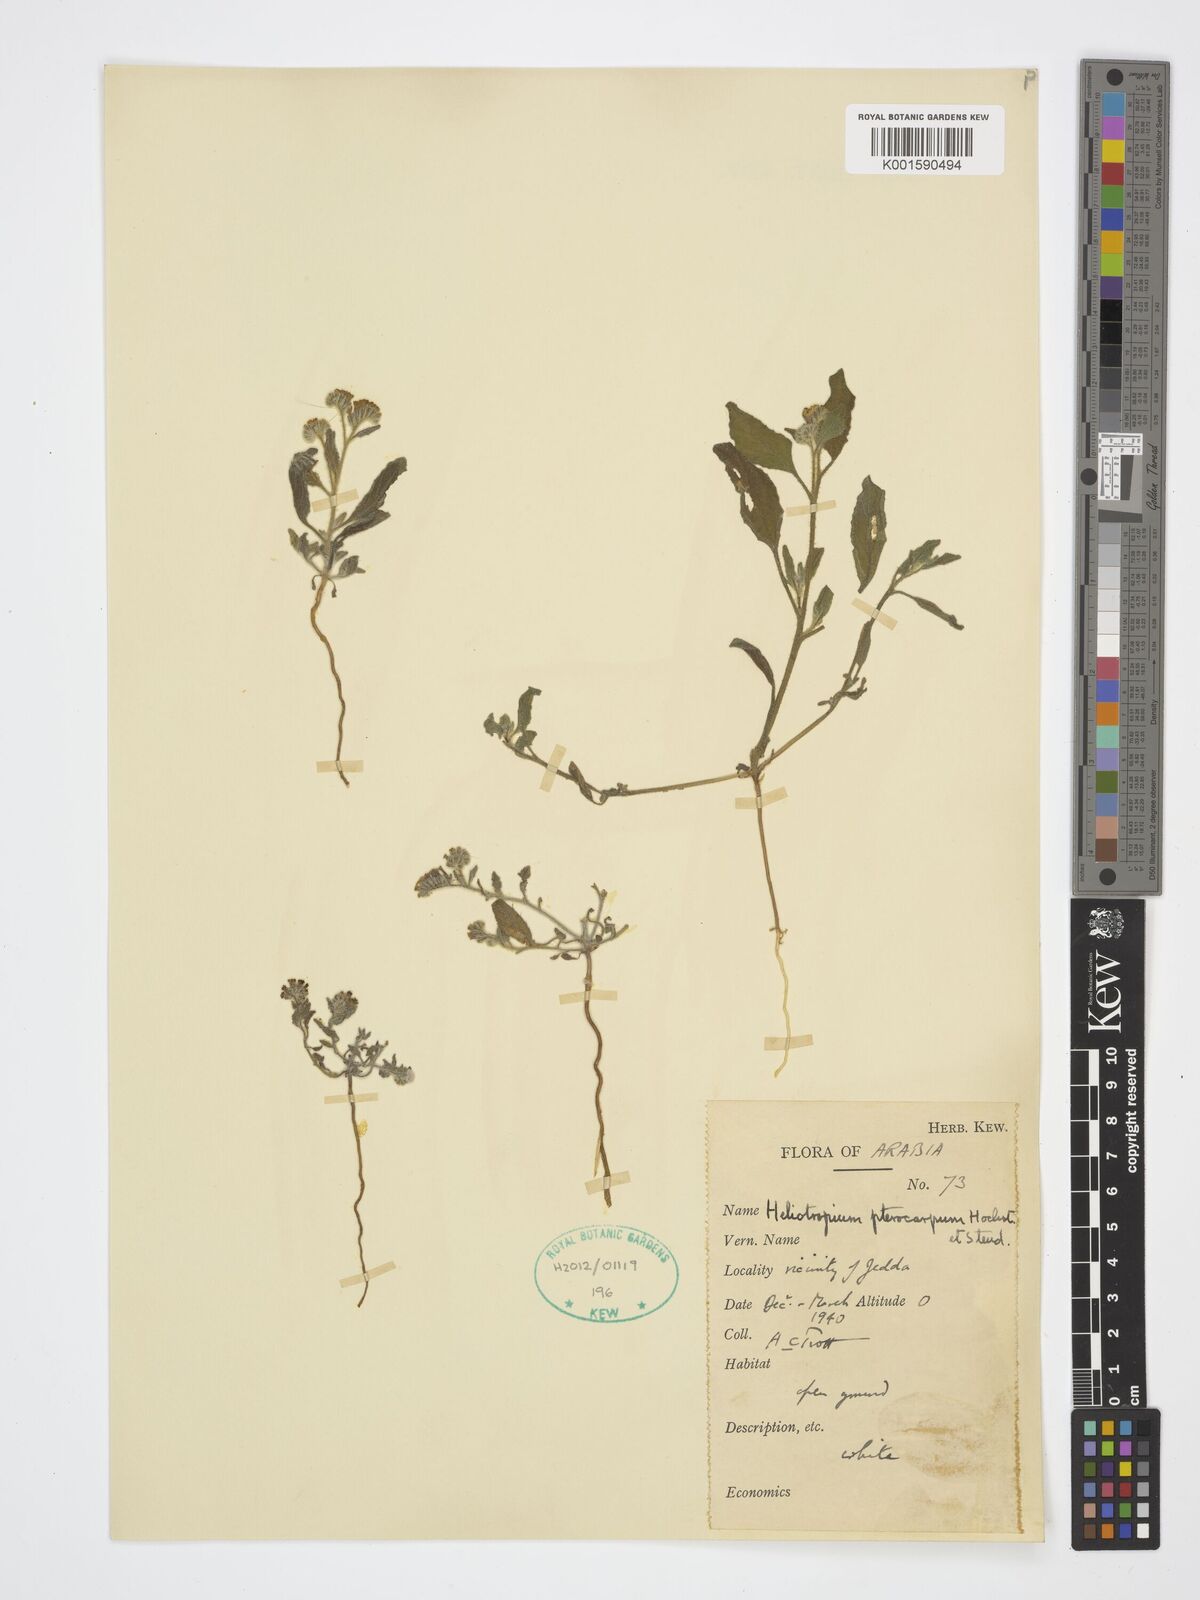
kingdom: Plantae
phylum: Tracheophyta
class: Magnoliopsida
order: Boraginales
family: Heliotropiaceae
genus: Heliotropium
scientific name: Heliotropium pterocarpum
